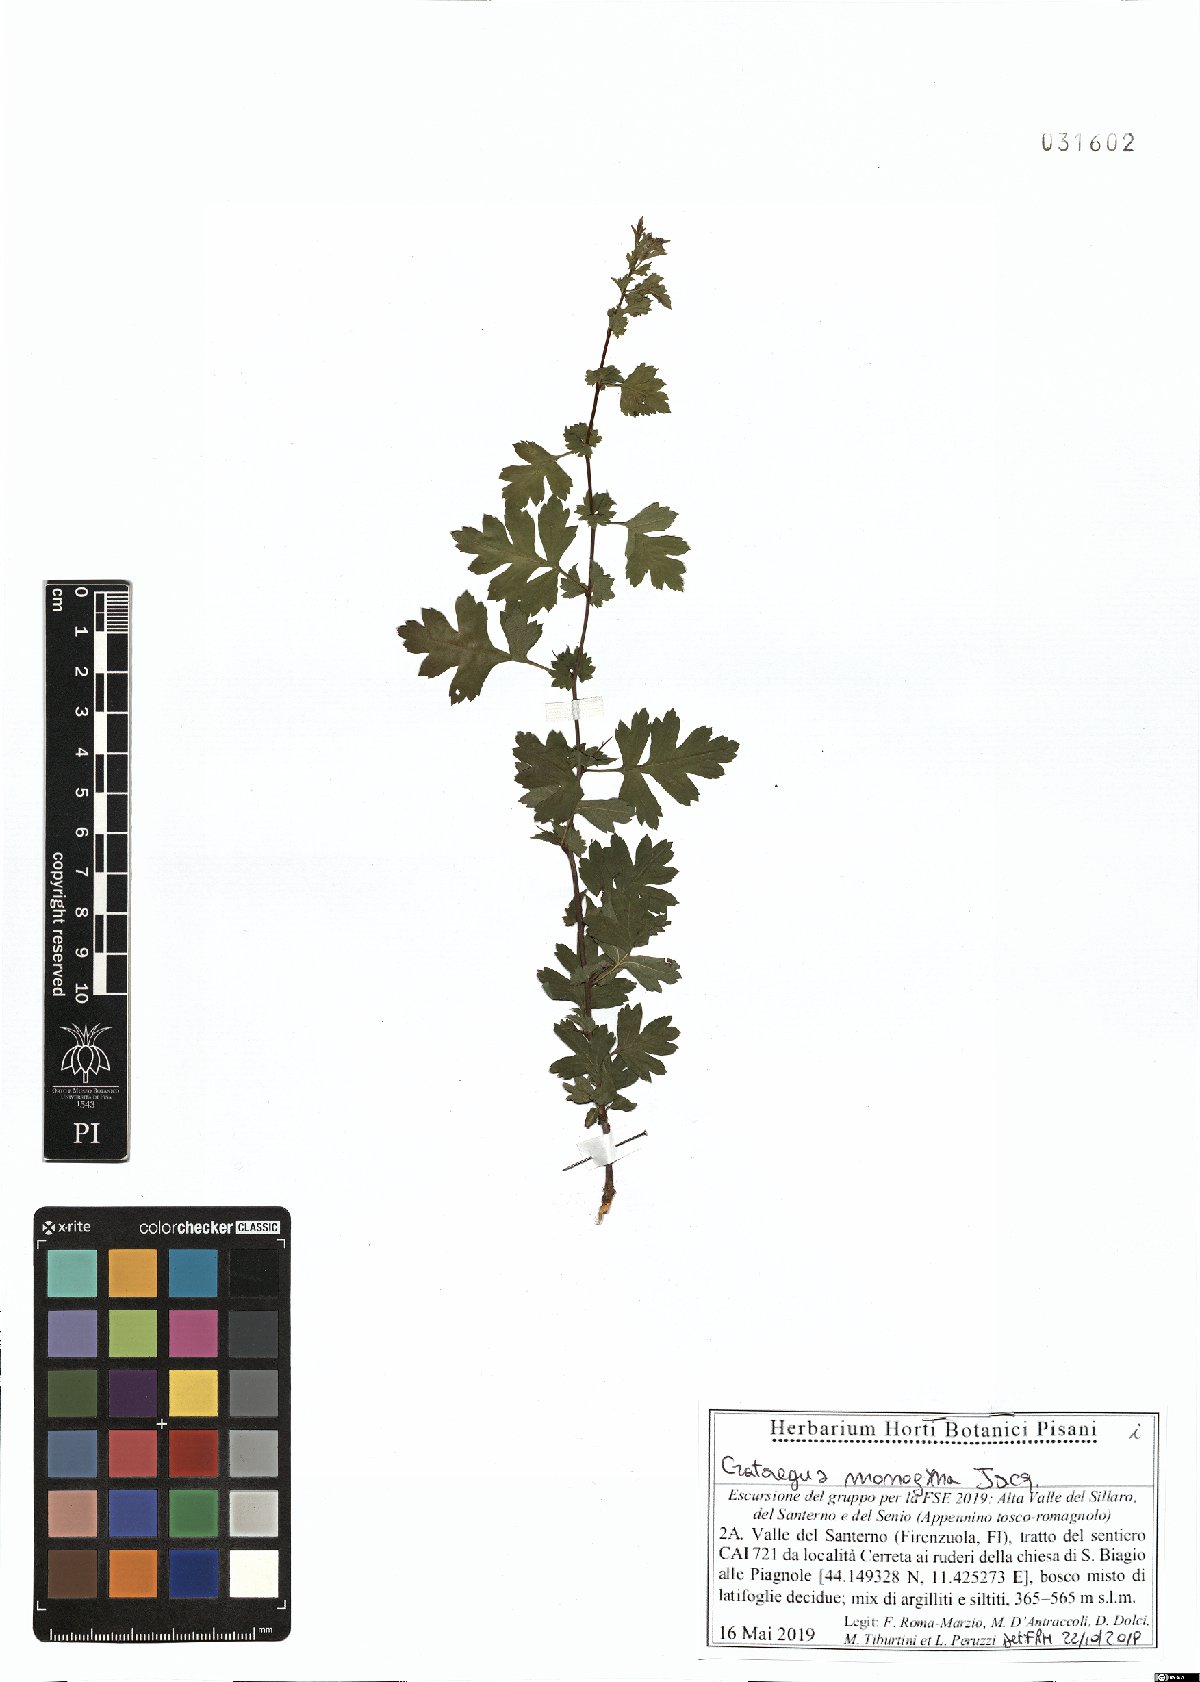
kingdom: Plantae
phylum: Tracheophyta
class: Magnoliopsida
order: Rosales
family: Rosaceae
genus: Crataegus
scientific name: Crataegus monogyna
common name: Hawthorn
